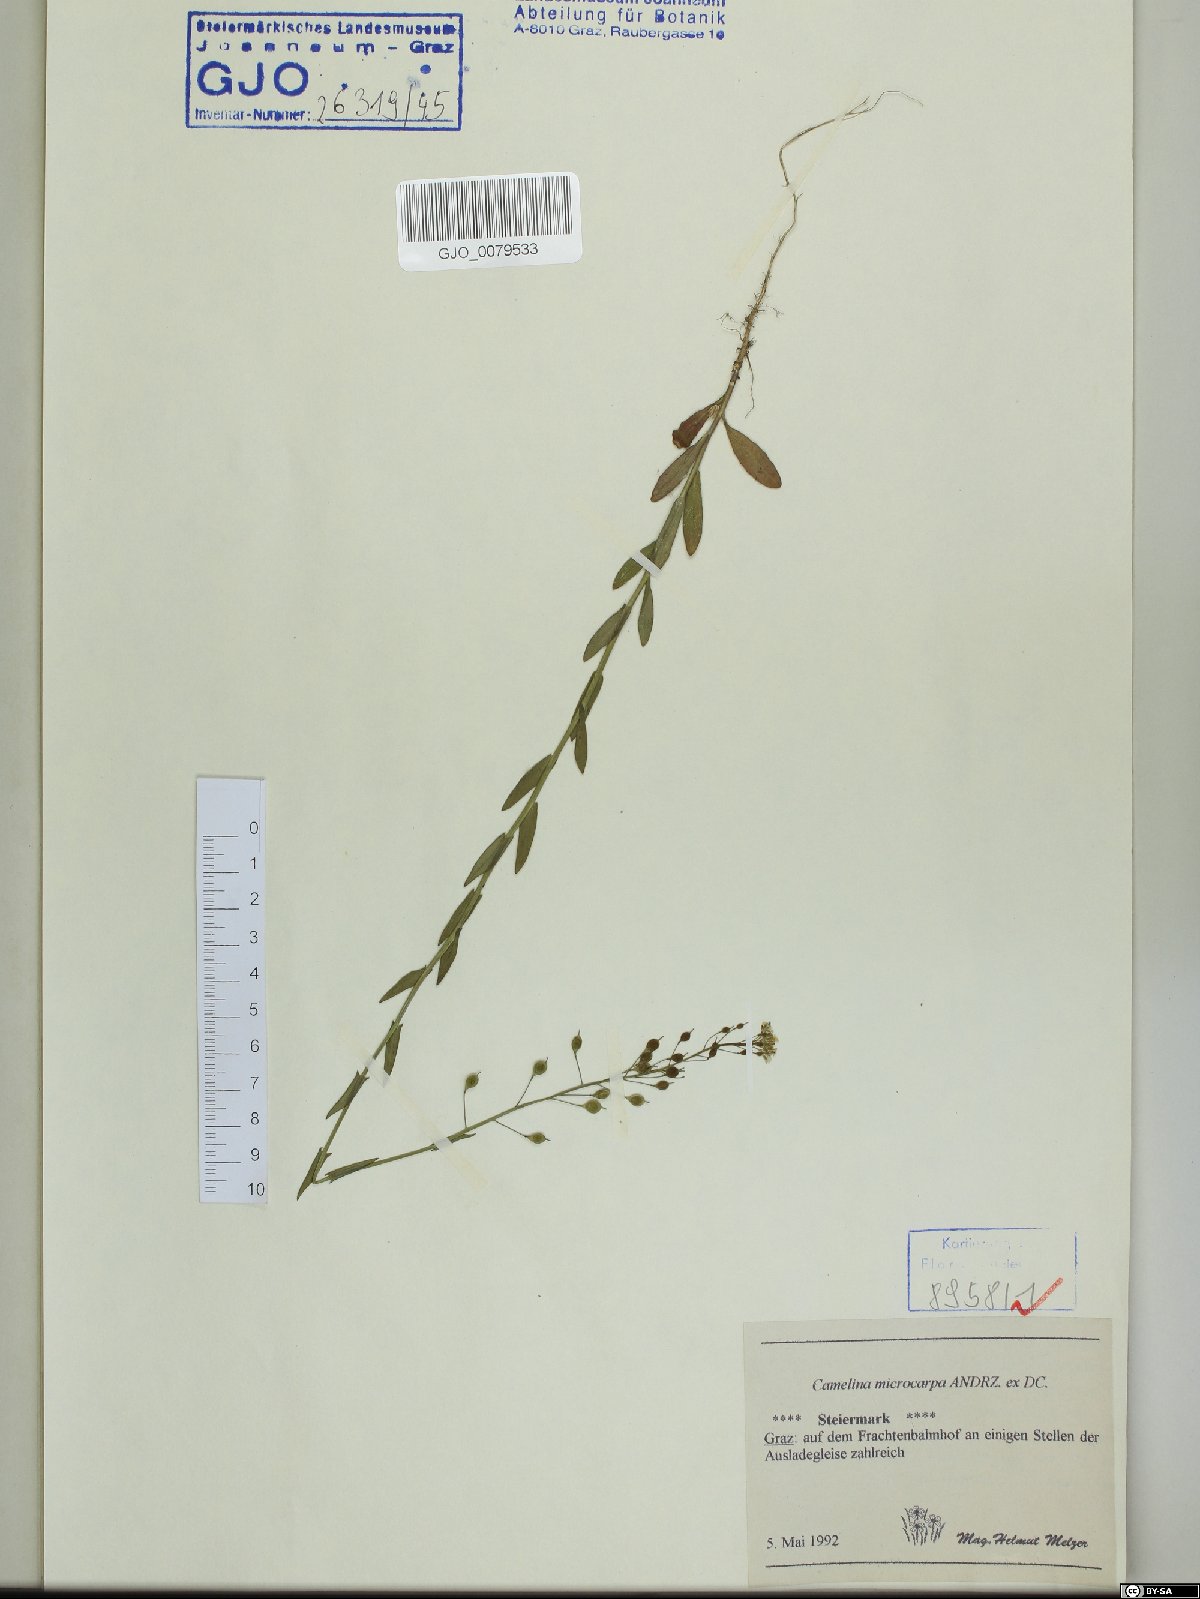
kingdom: Plantae
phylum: Tracheophyta
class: Magnoliopsida
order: Brassicales
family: Brassicaceae
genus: Camelina
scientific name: Camelina microcarpa
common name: Lesser gold-of-pleasure
